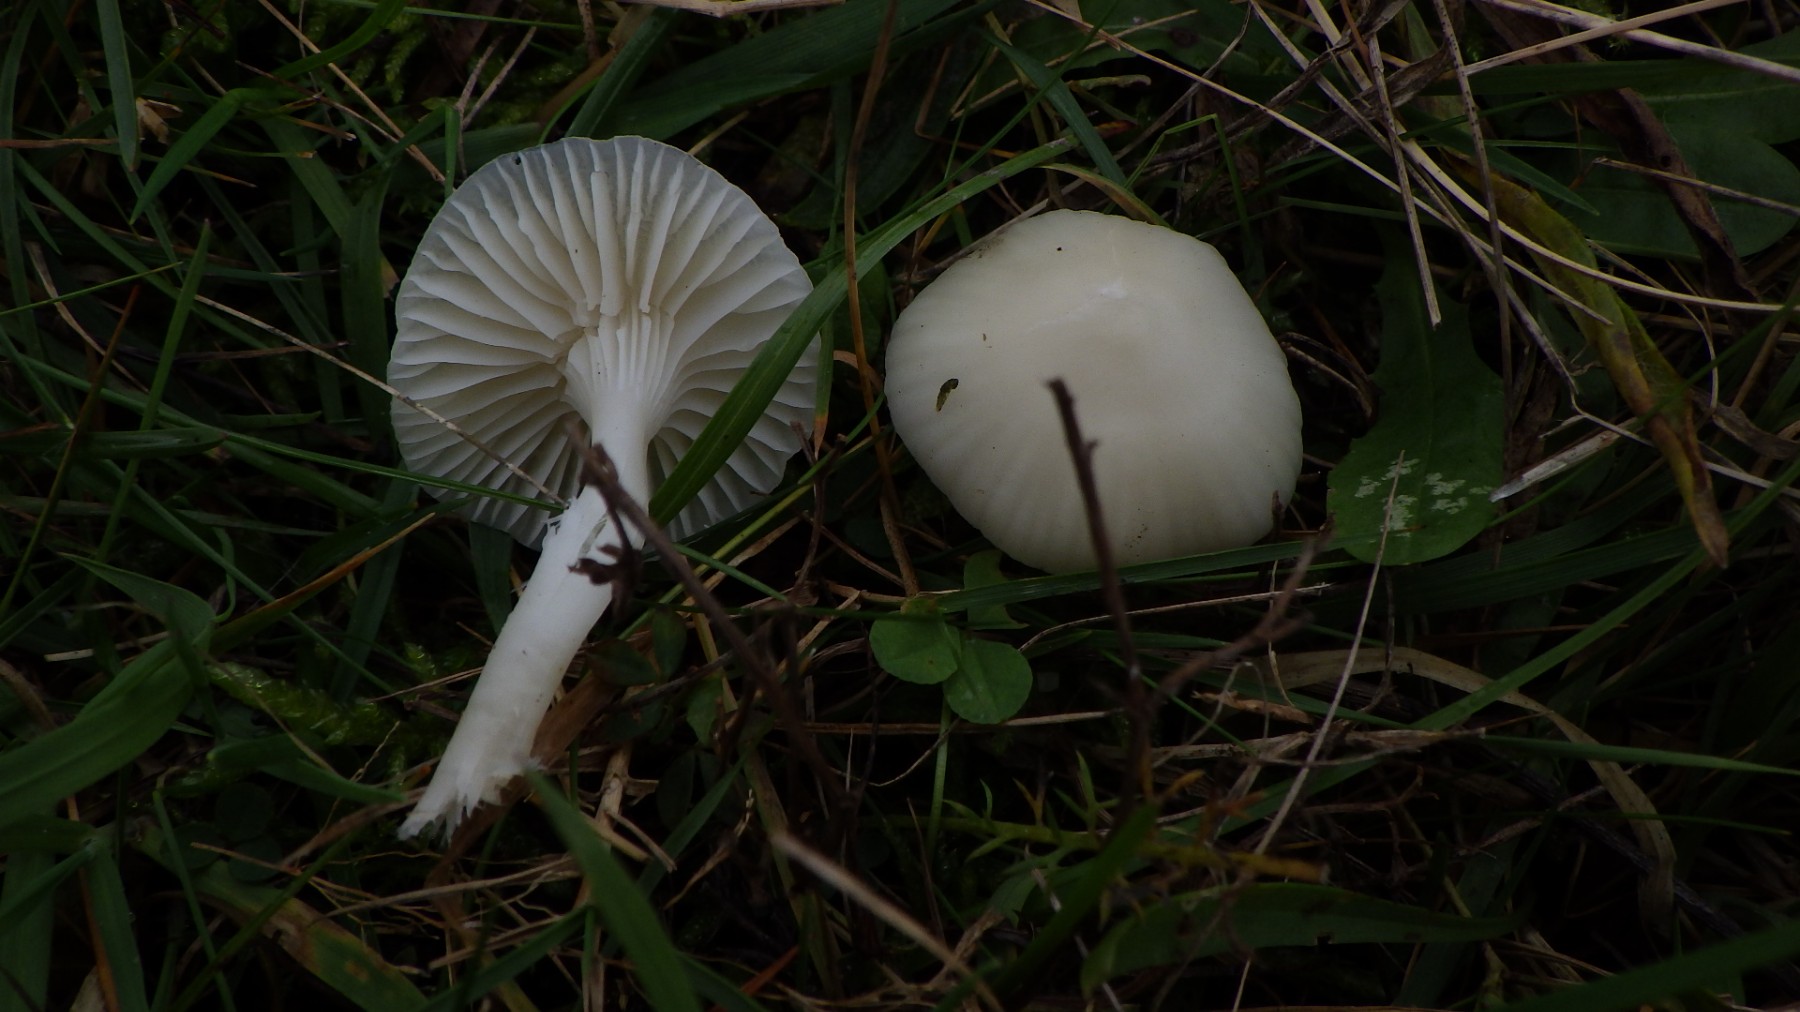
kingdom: Fungi
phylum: Basidiomycota
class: Agaricomycetes
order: Agaricales
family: Hygrophoraceae
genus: Cuphophyllus
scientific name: Cuphophyllus virgineus
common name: snehvid vokshat
